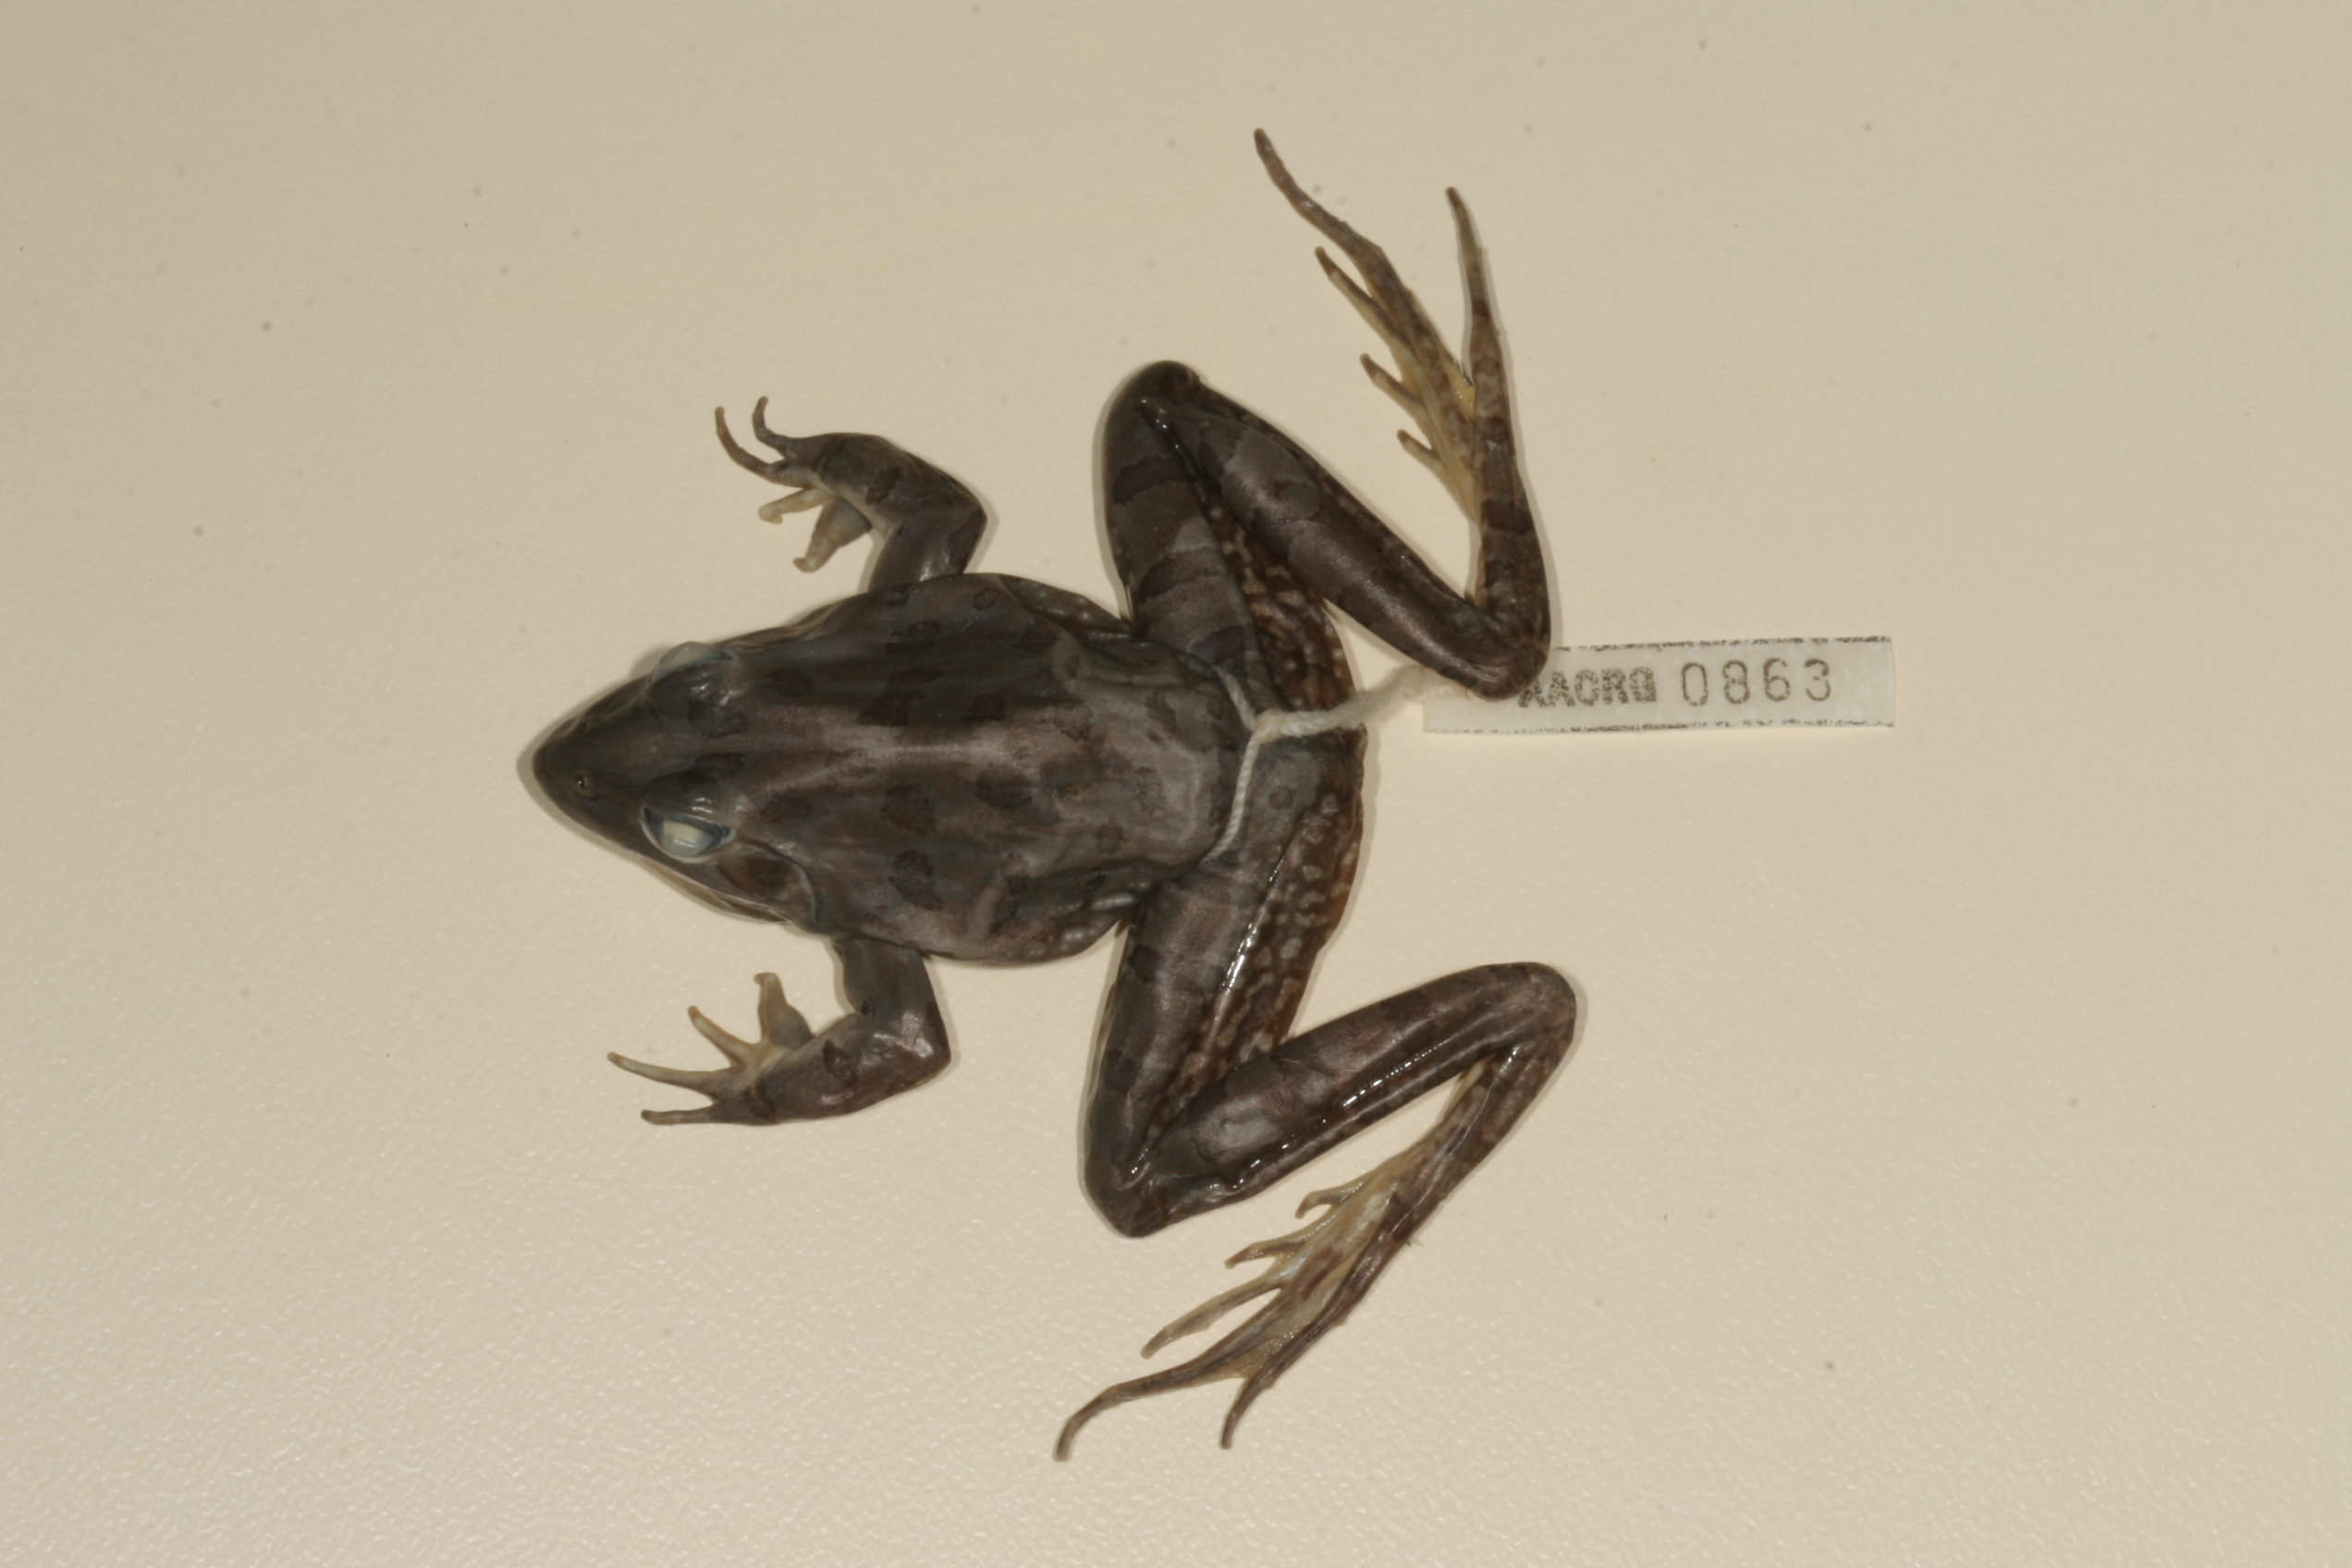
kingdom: Animalia
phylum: Chordata
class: Amphibia
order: Anura
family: Pyxicephalidae
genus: Amietia
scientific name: Amietia angolensis
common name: Dusky-throated frog
